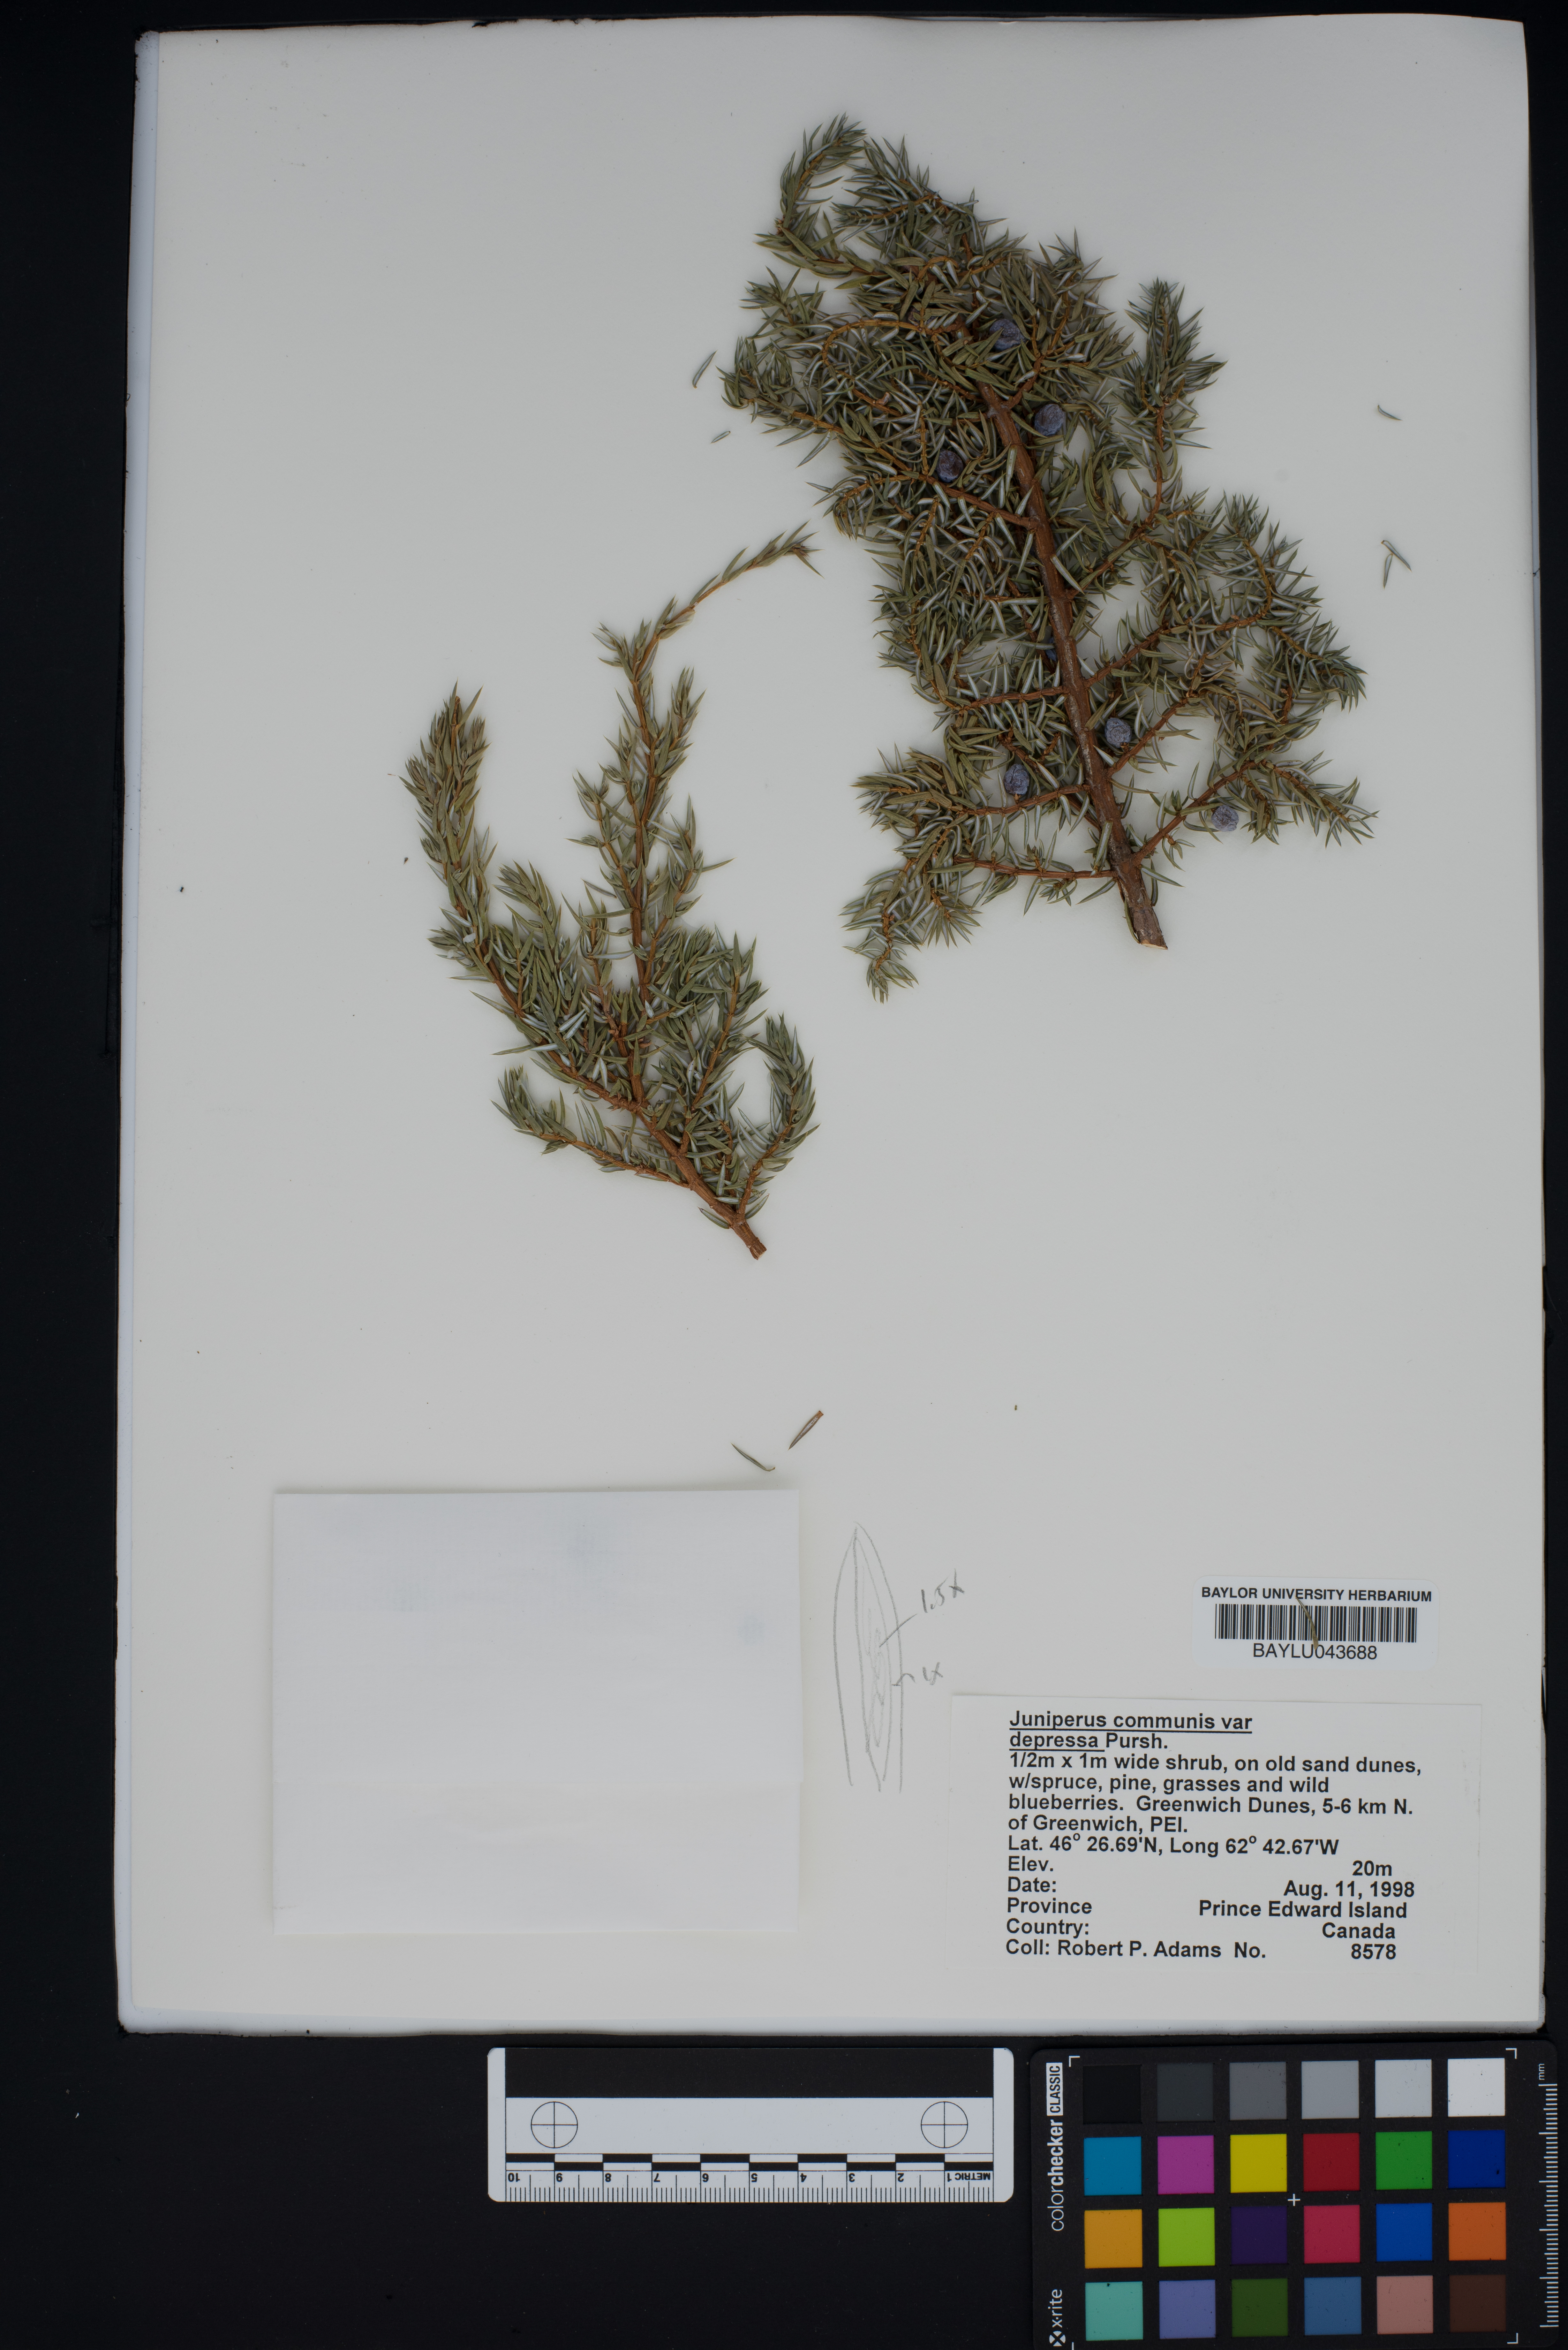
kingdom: Plantae
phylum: Tracheophyta
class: Pinopsida
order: Pinales
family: Cupressaceae
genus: Juniperus
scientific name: Juniperus communis
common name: Common juniper
